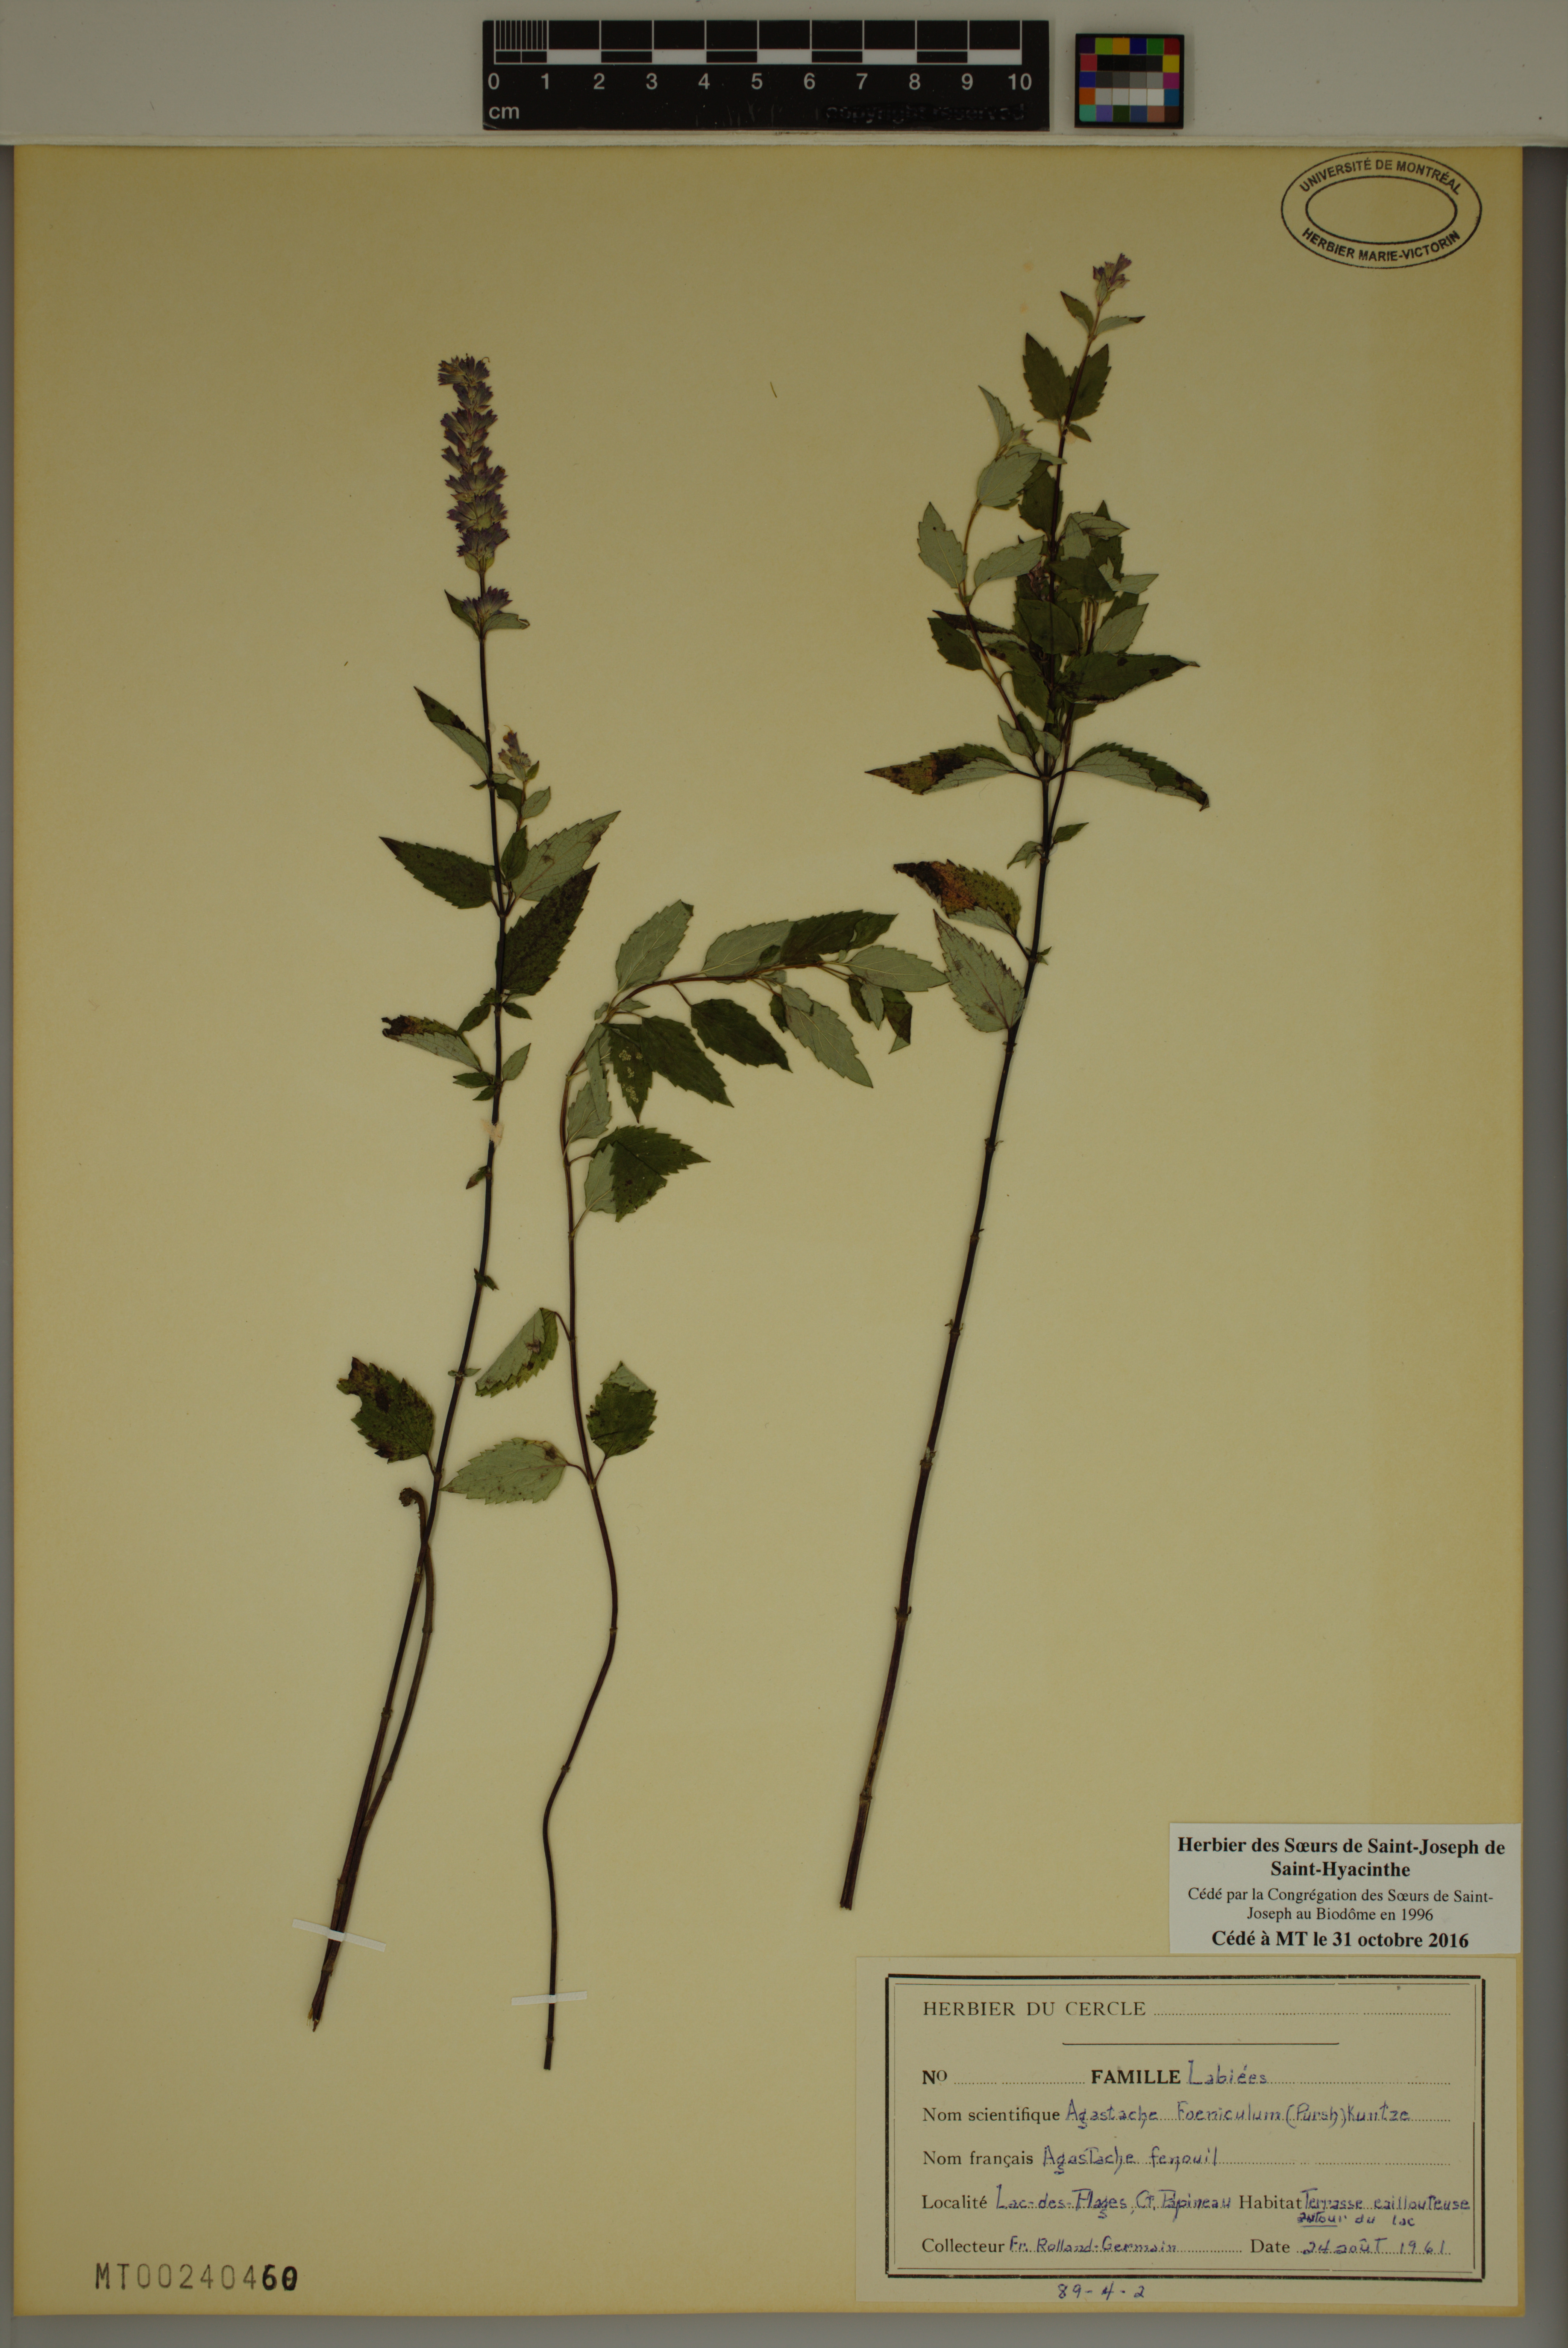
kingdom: Plantae
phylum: Tracheophyta
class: Magnoliopsida
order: Lamiales
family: Lamiaceae
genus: Agastache
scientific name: Agastache foeniculum
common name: Anise hyssop
